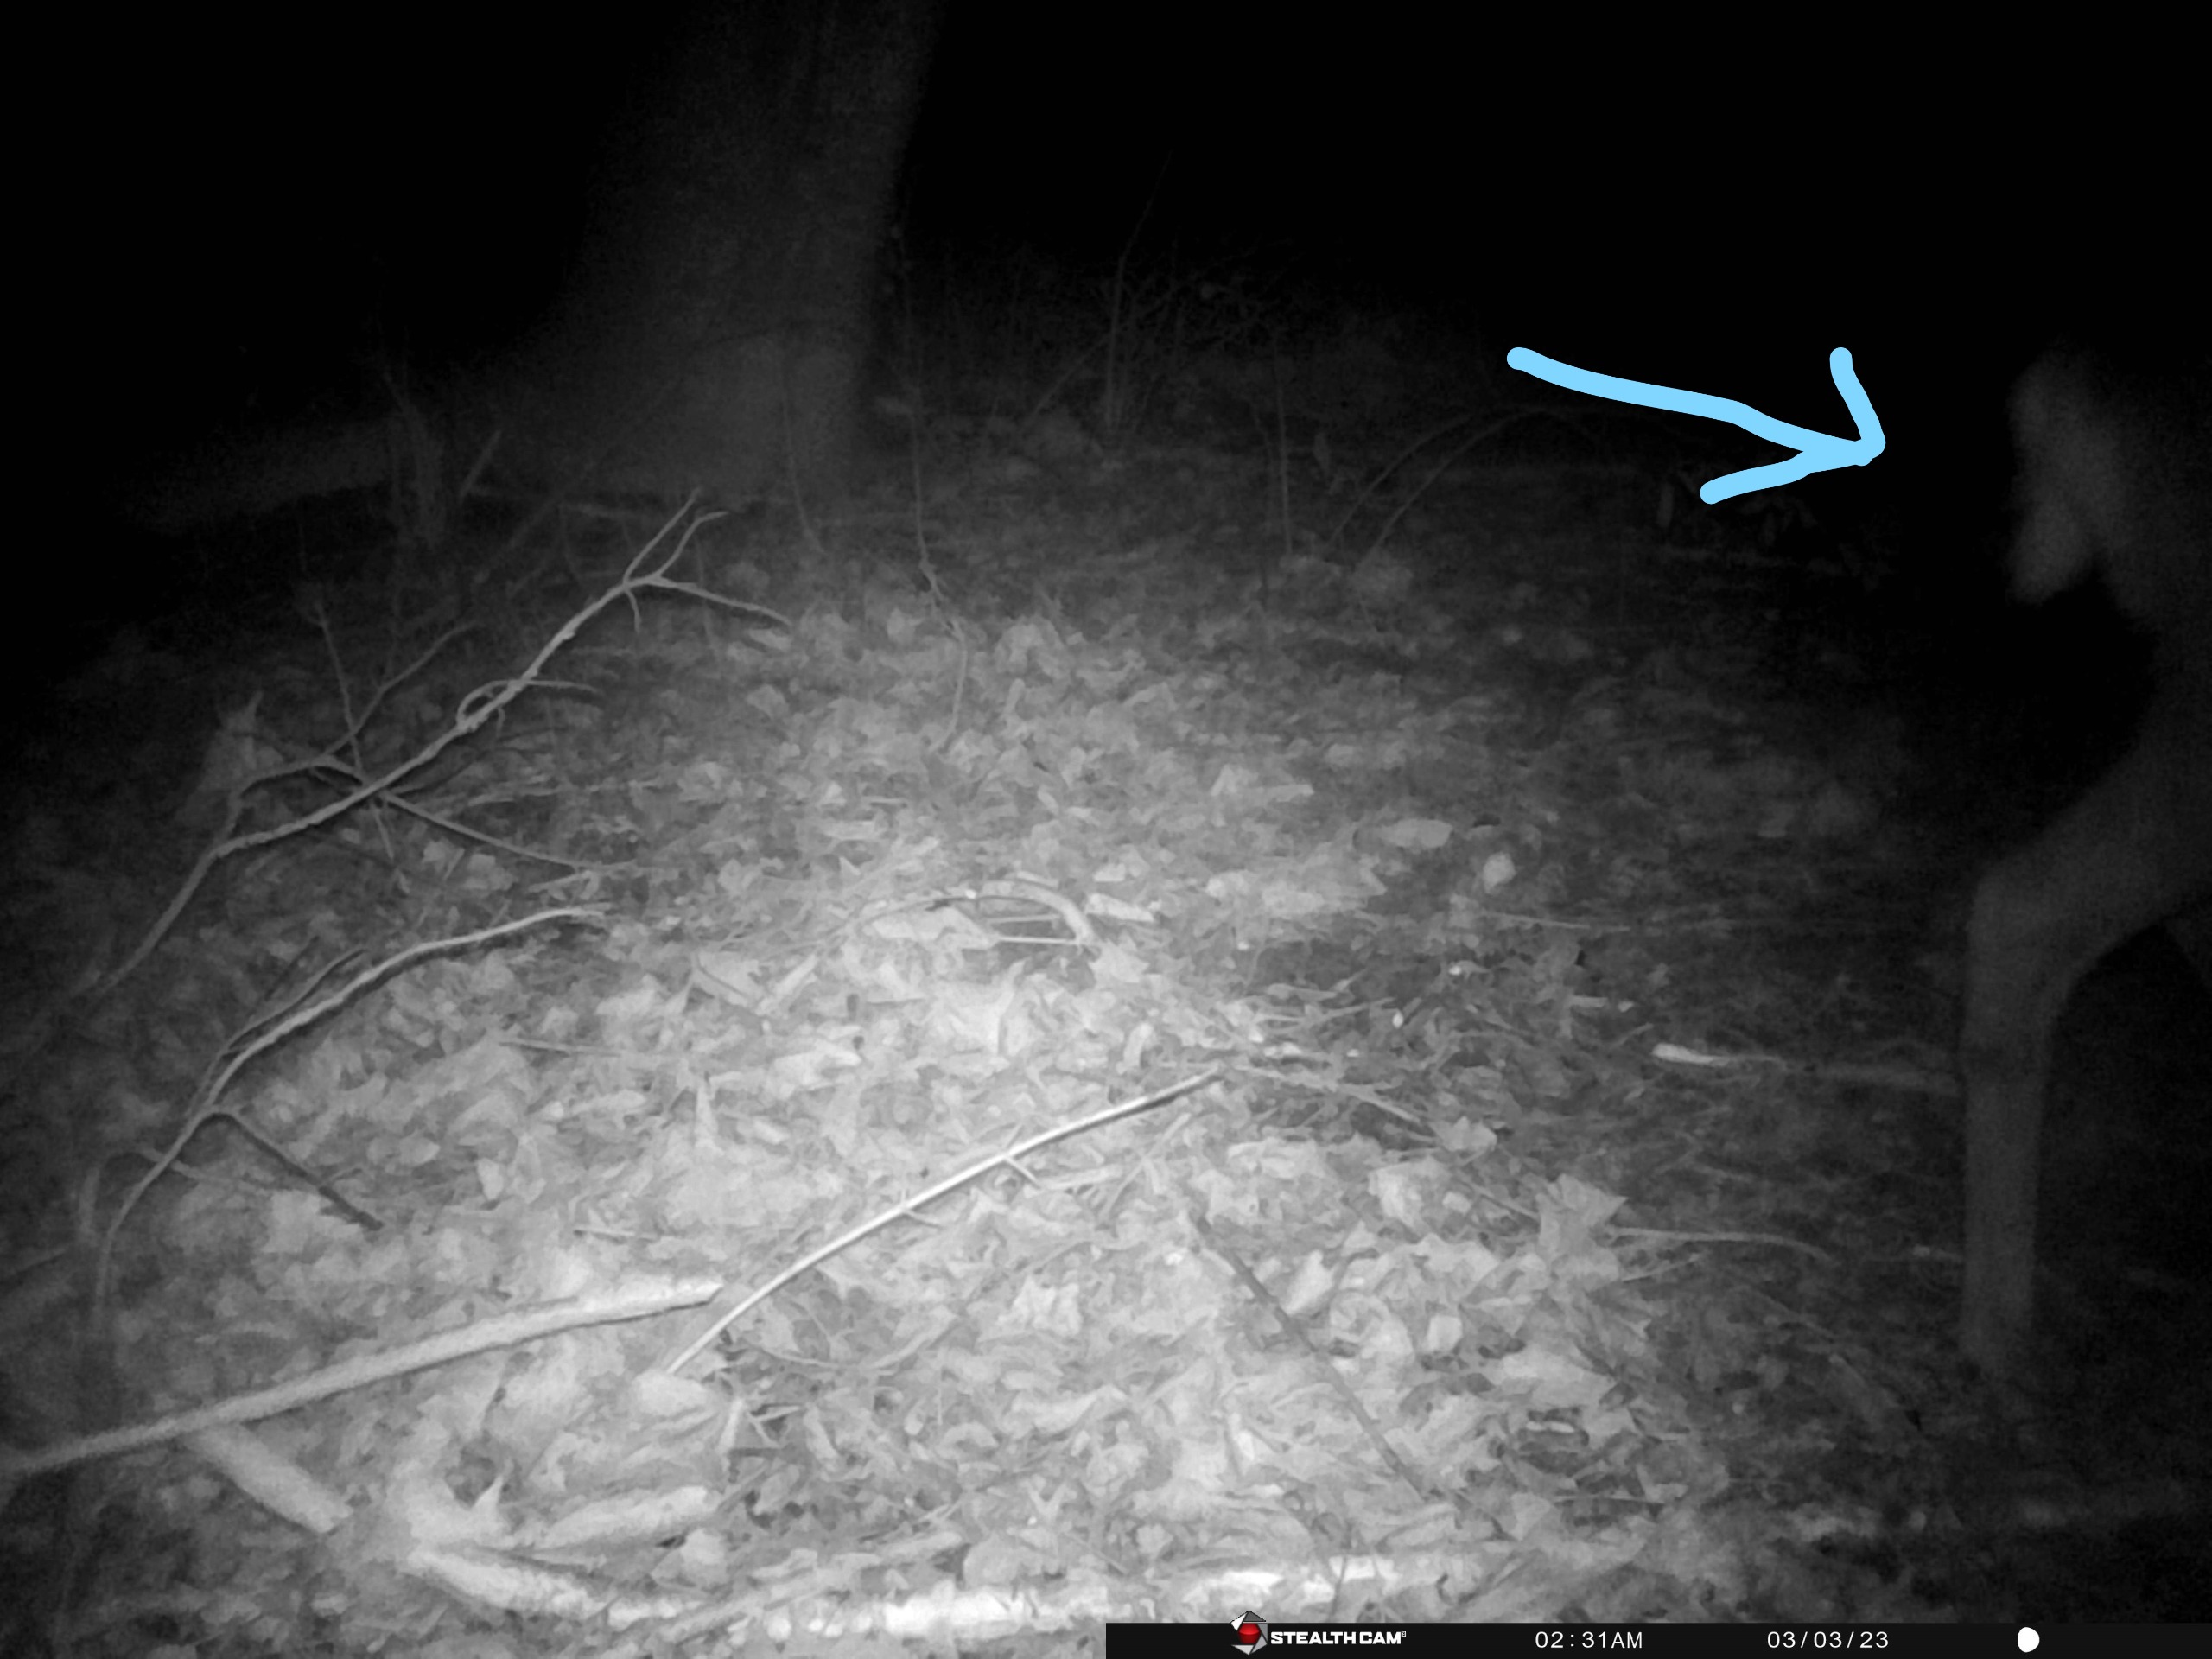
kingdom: Animalia
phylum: Chordata
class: Mammalia
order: Artiodactyla
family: Cervidae
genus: Capreolus
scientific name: Capreolus capreolus
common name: Rådyr
